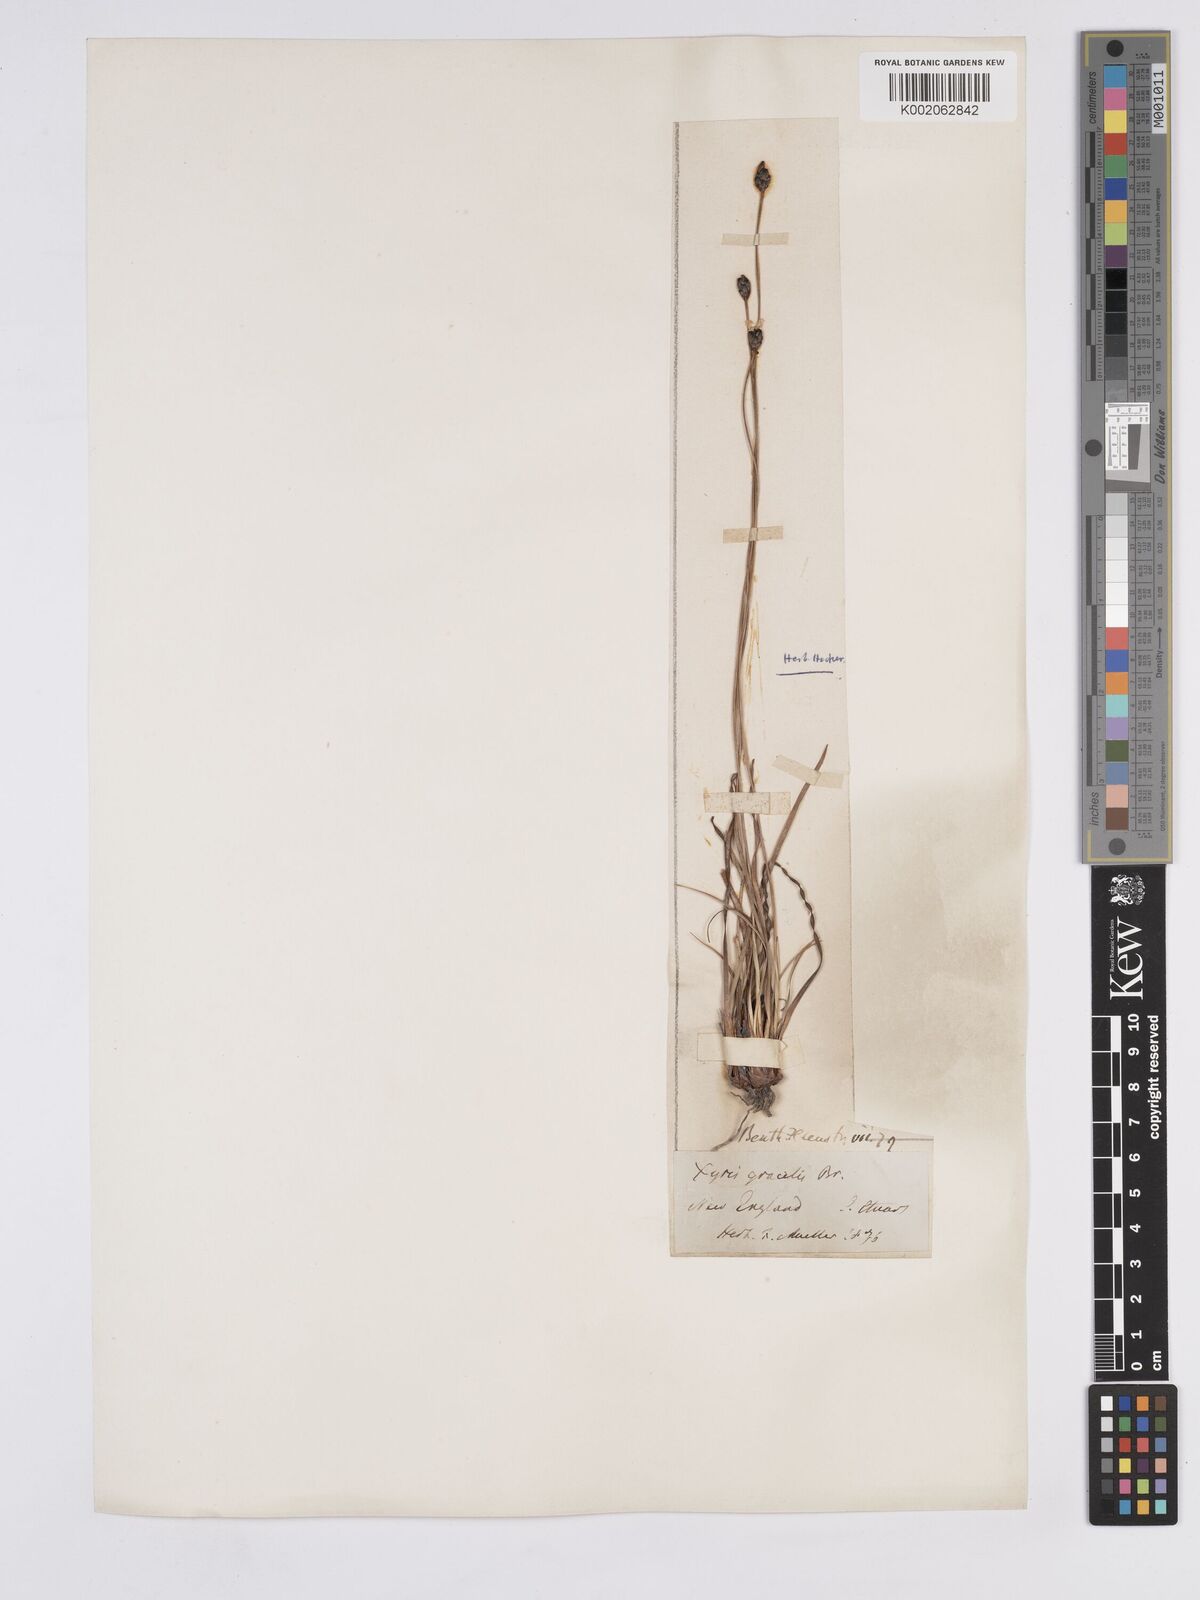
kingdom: Plantae
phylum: Tracheophyta
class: Liliopsida
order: Poales
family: Xyridaceae
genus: Xyris
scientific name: Xyris gracilis
